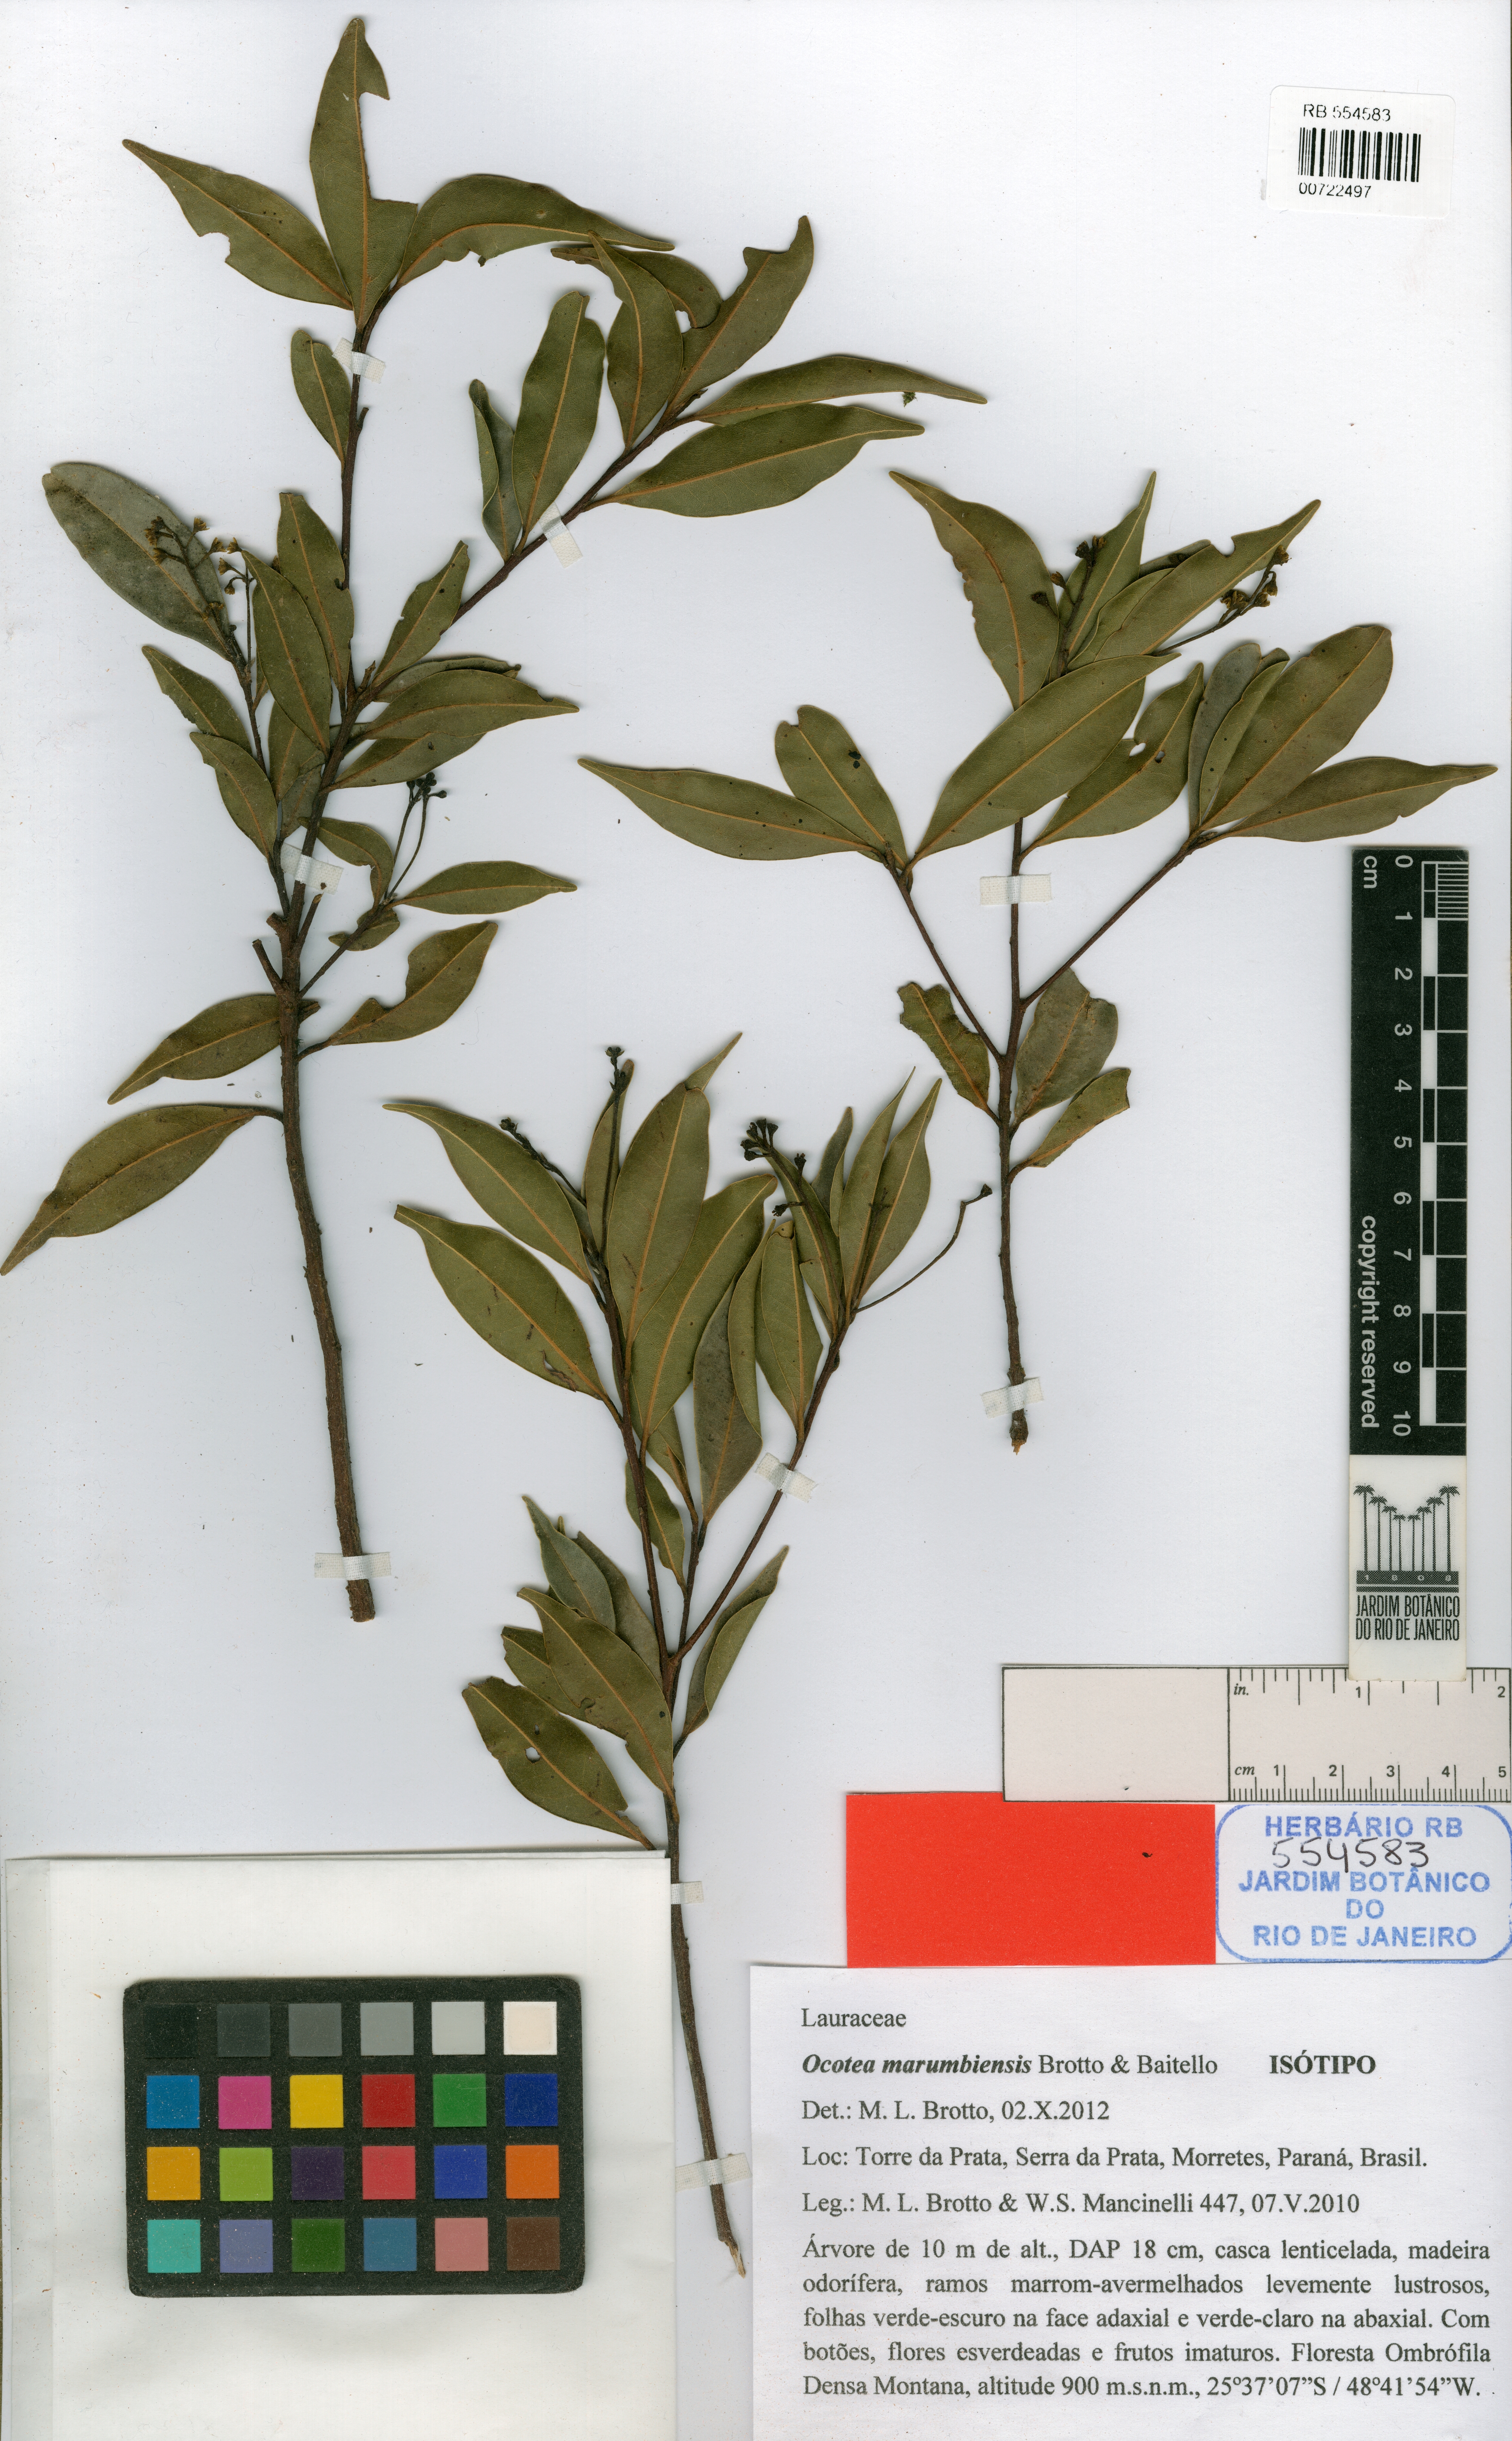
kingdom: Plantae
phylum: Tracheophyta
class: Magnoliopsida
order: Laurales
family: Lauraceae
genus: Ocotea
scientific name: Ocotea marumbiensis
